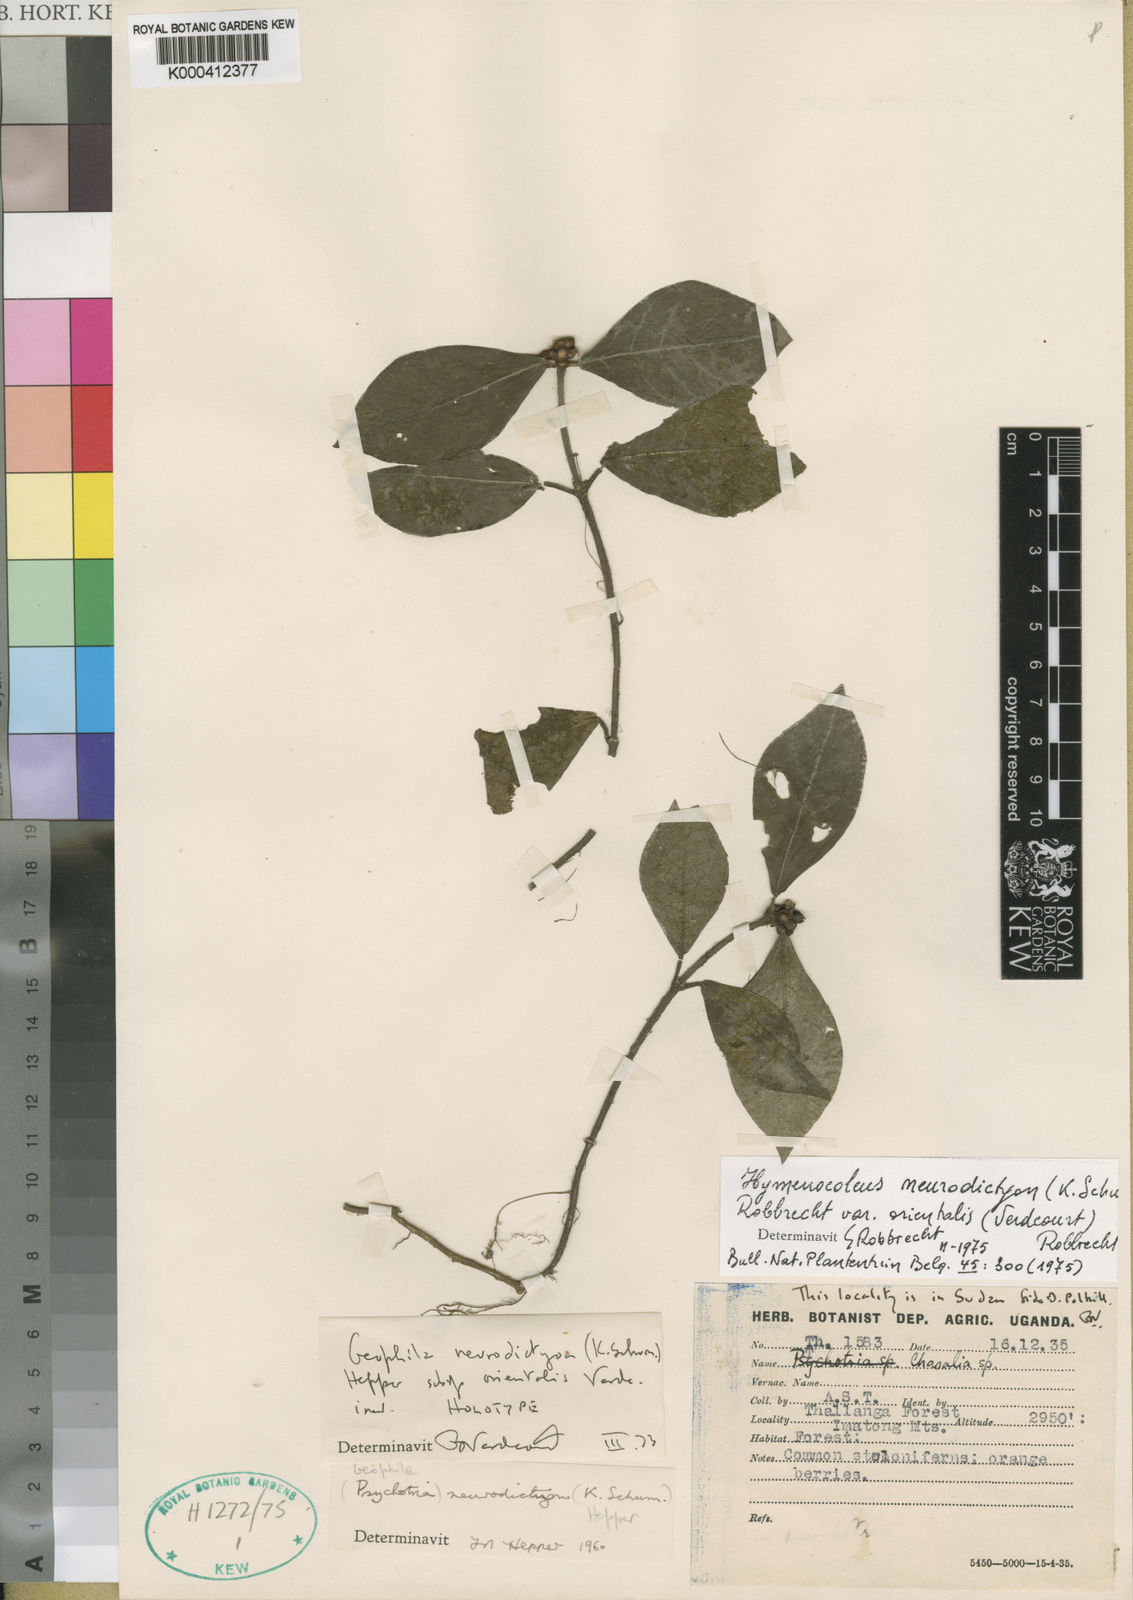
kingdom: Plantae
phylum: Tracheophyta
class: Magnoliopsida
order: Gentianales
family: Rubiaceae
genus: Hymenocoleus
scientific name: Hymenocoleus neurodictyon
